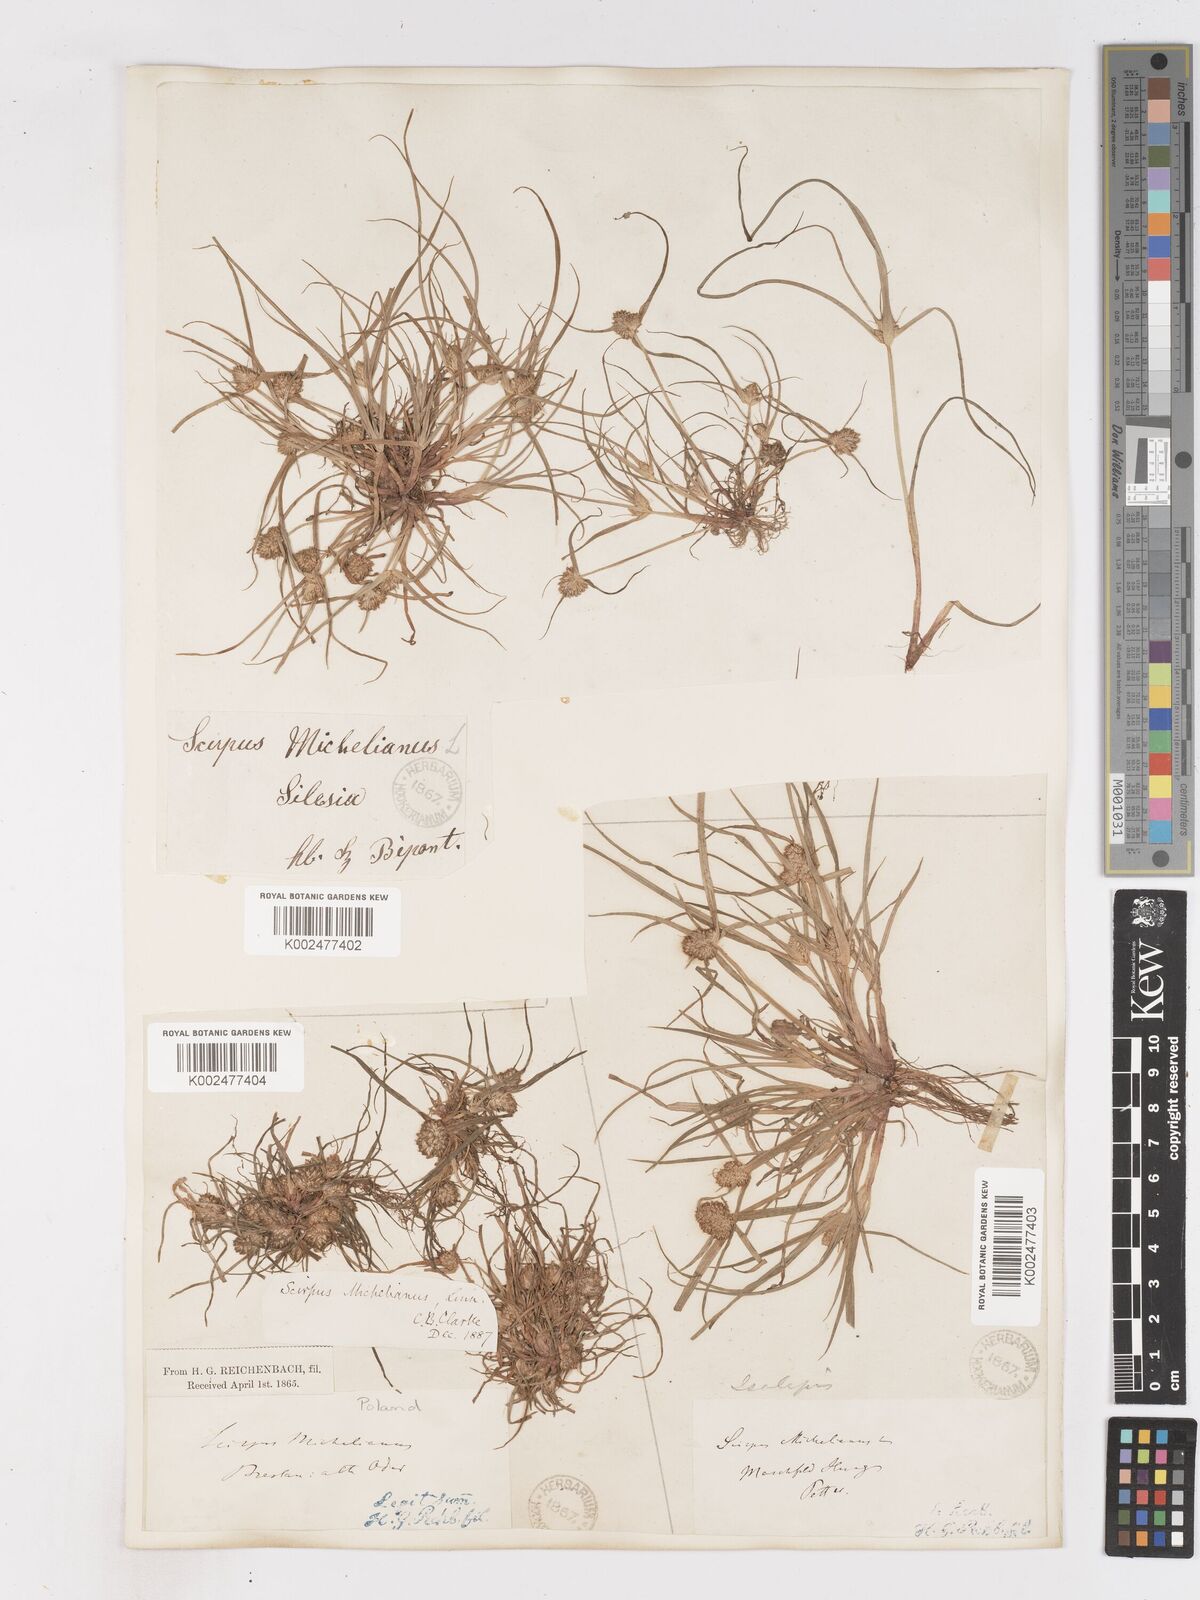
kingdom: Plantae
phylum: Tracheophyta
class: Liliopsida
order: Poales
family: Cyperaceae
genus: Cyperus
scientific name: Cyperus michelianus
